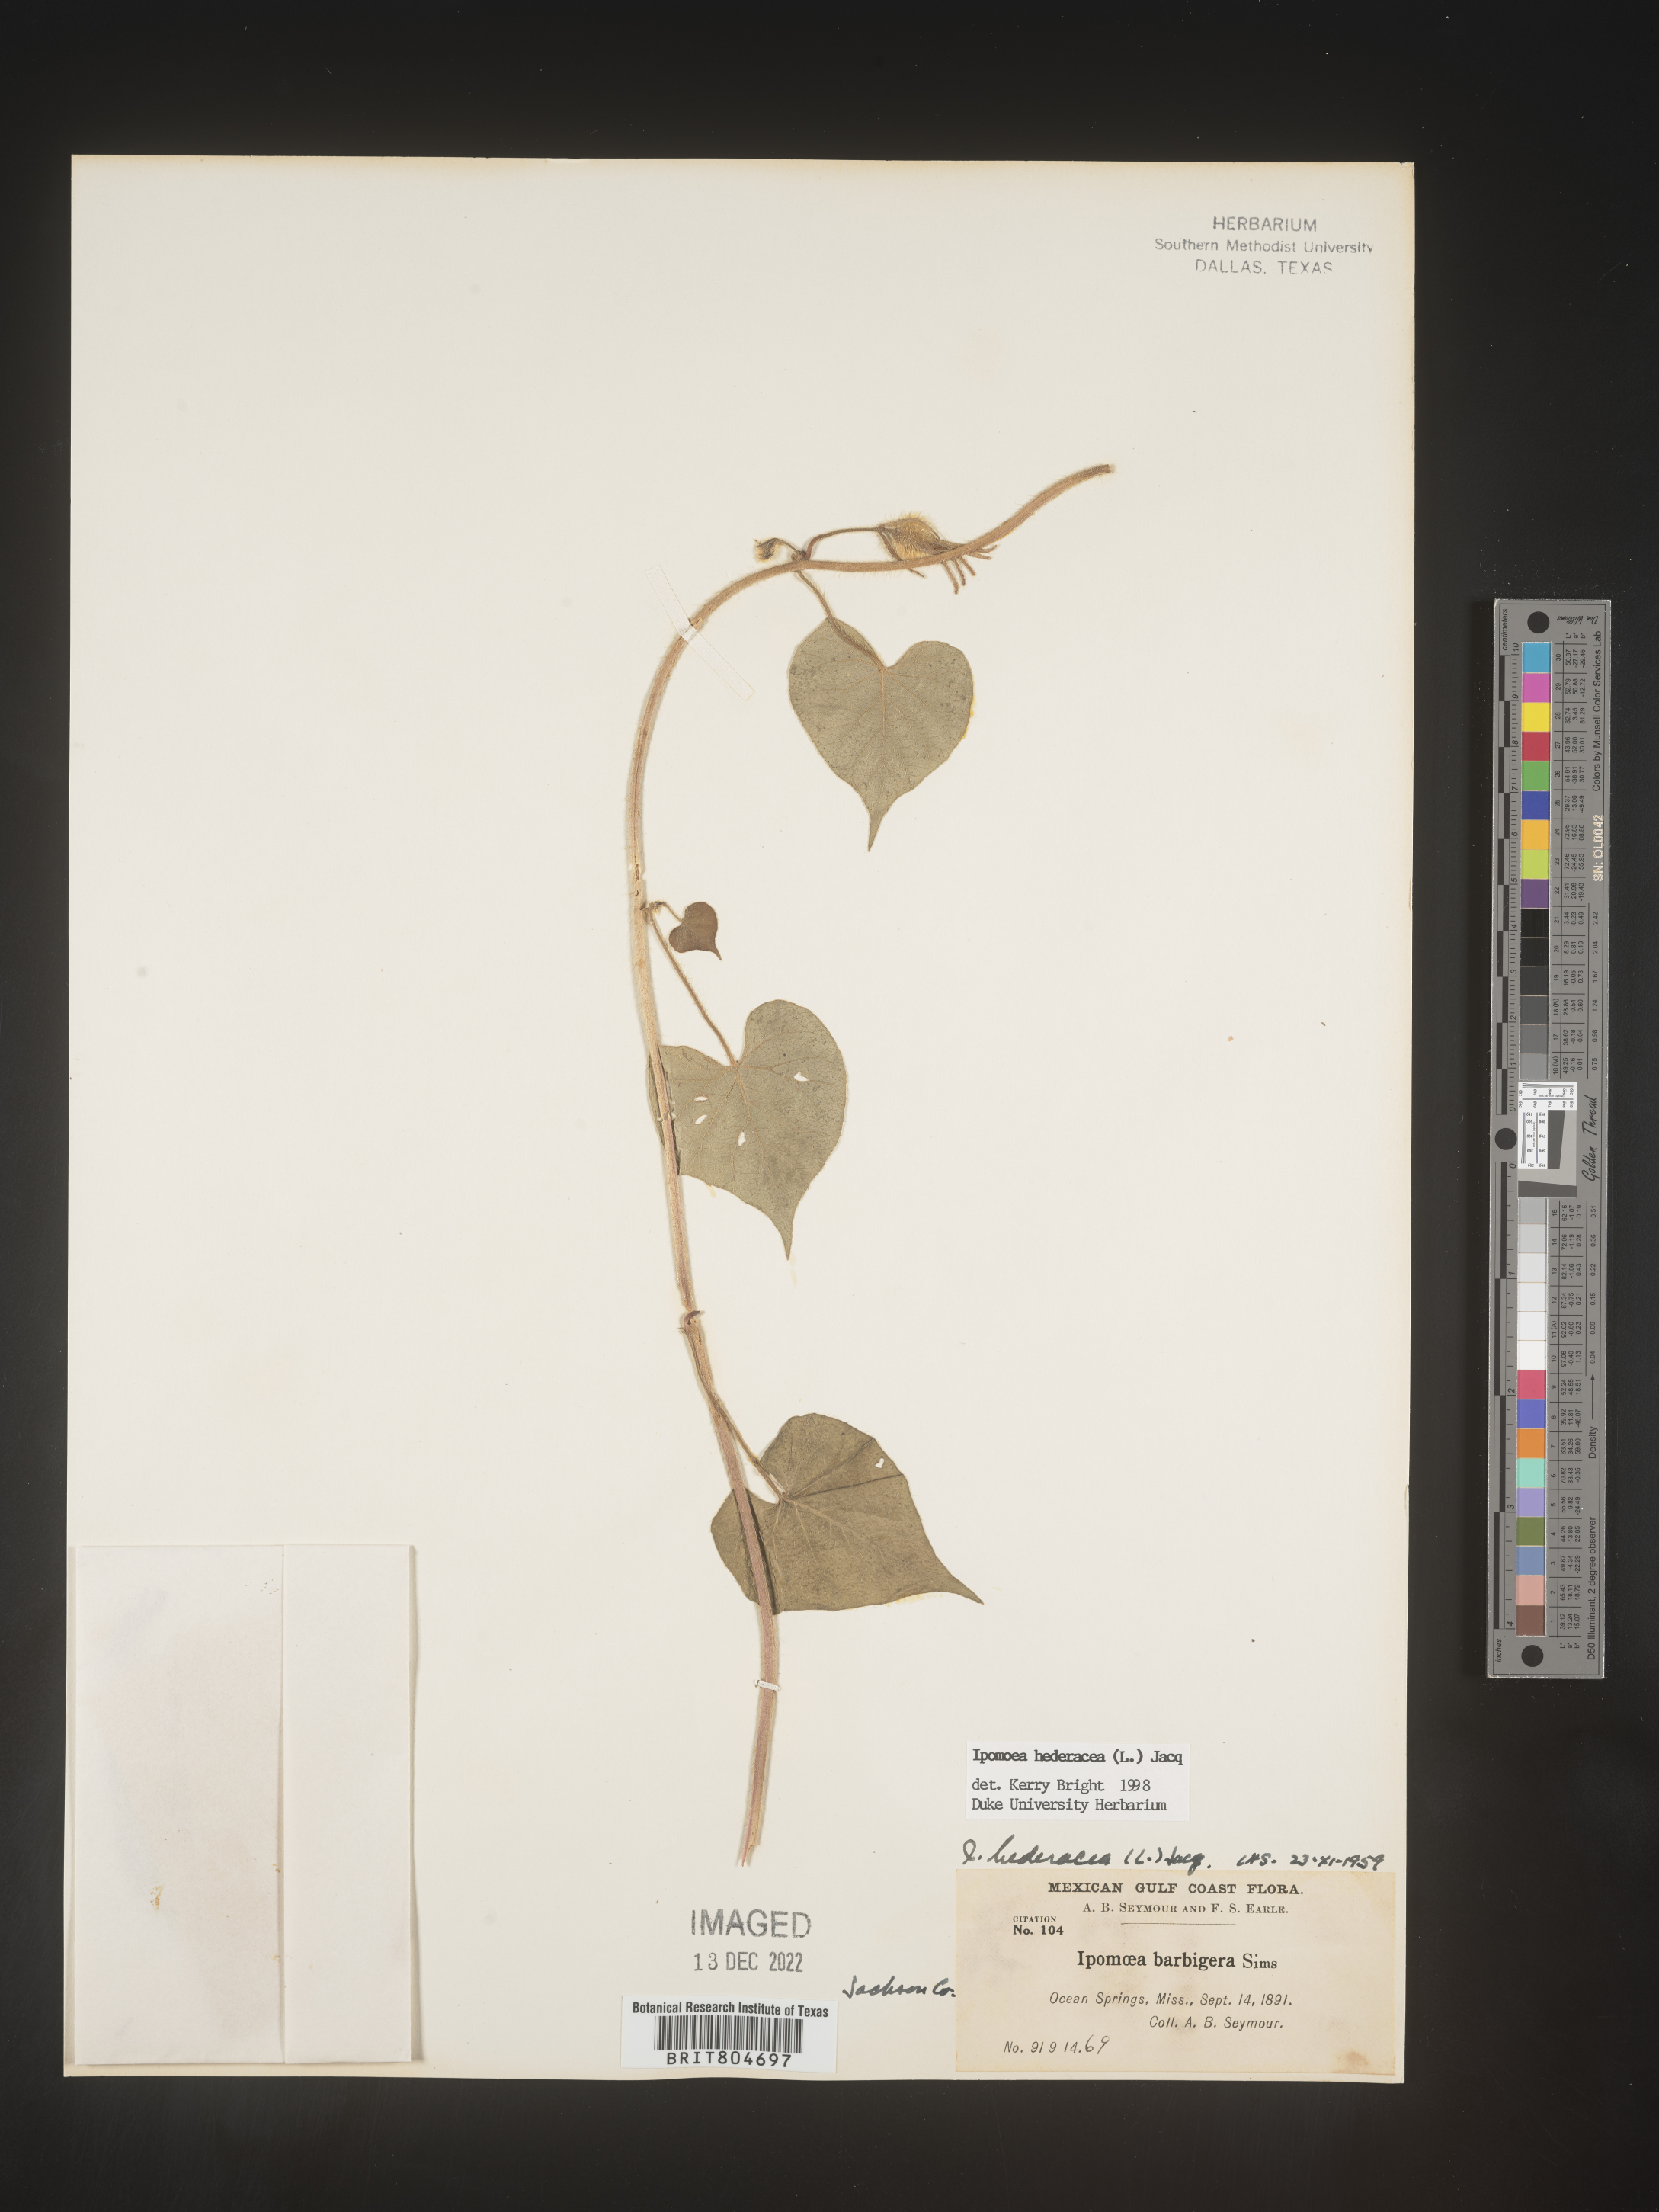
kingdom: Plantae
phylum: Tracheophyta
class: Magnoliopsida
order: Solanales
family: Convolvulaceae
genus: Ipomoea
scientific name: Ipomoea hederacea
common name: Ivy-leaved morning-glory
